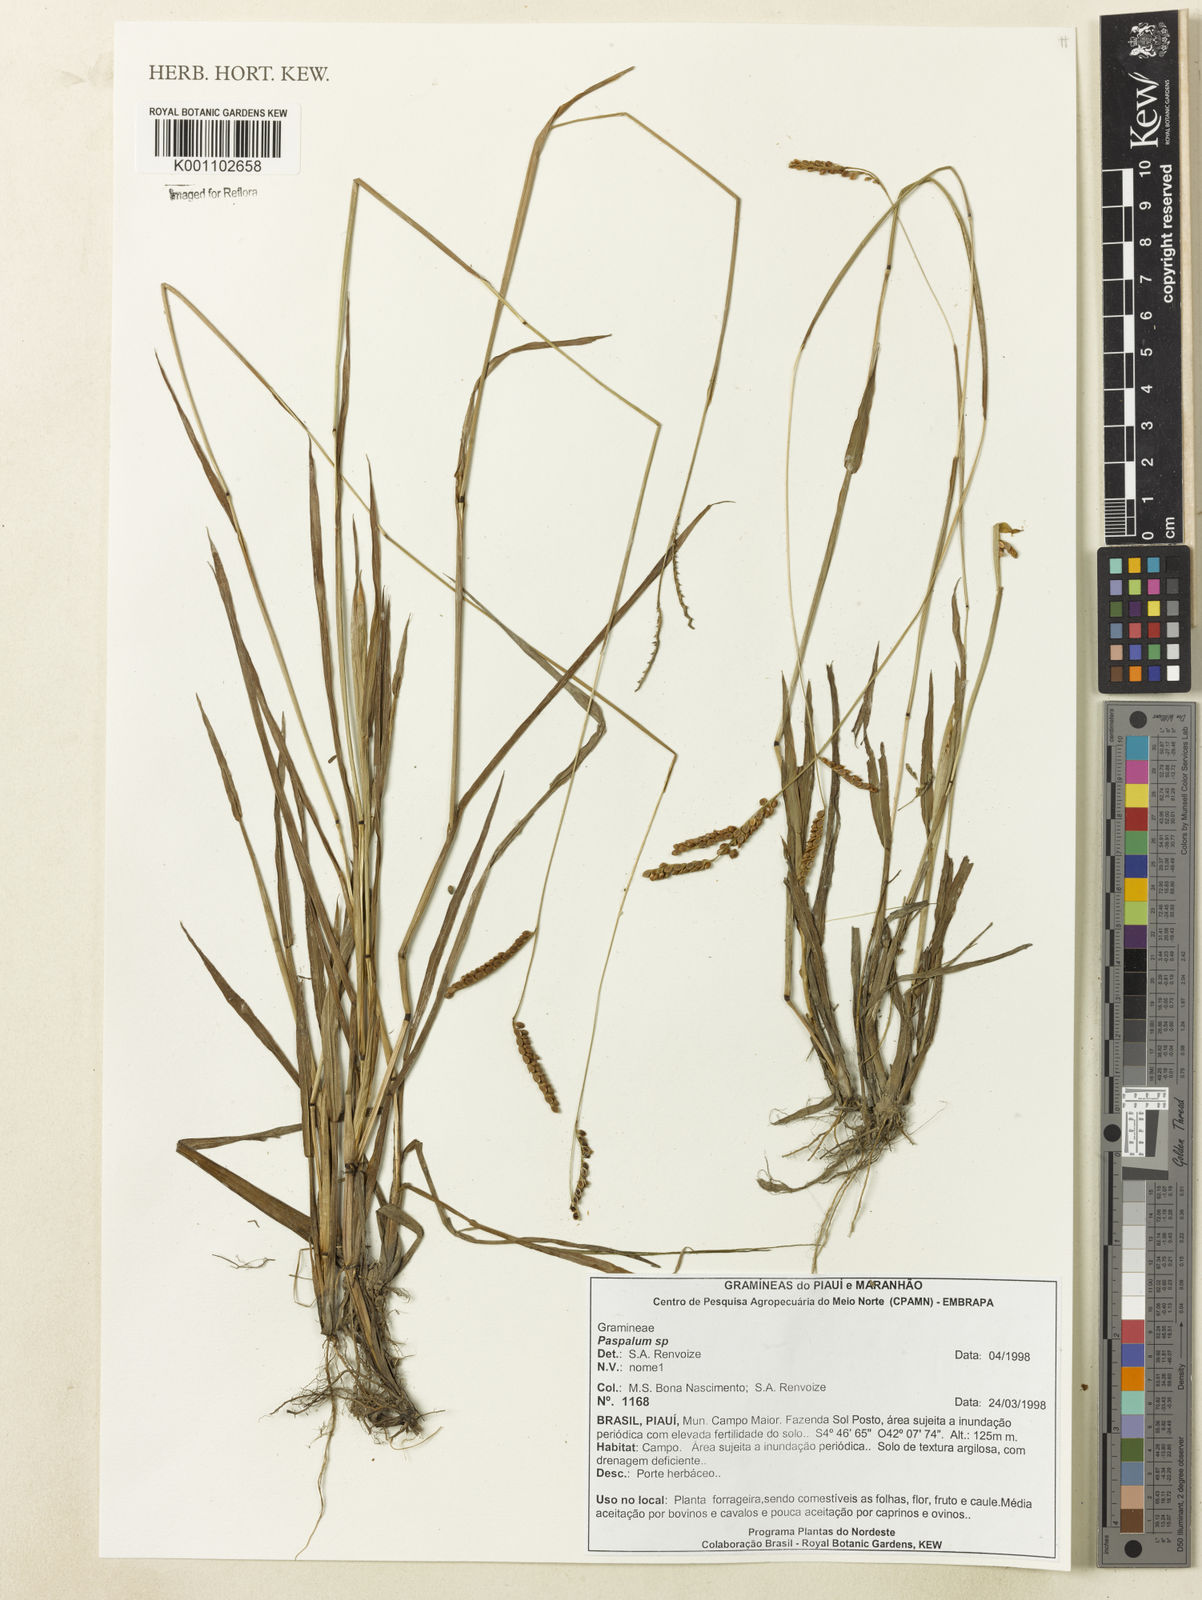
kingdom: Plantae
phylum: Tracheophyta
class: Liliopsida
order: Poales
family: Poaceae
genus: Paspalum
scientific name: Paspalum
